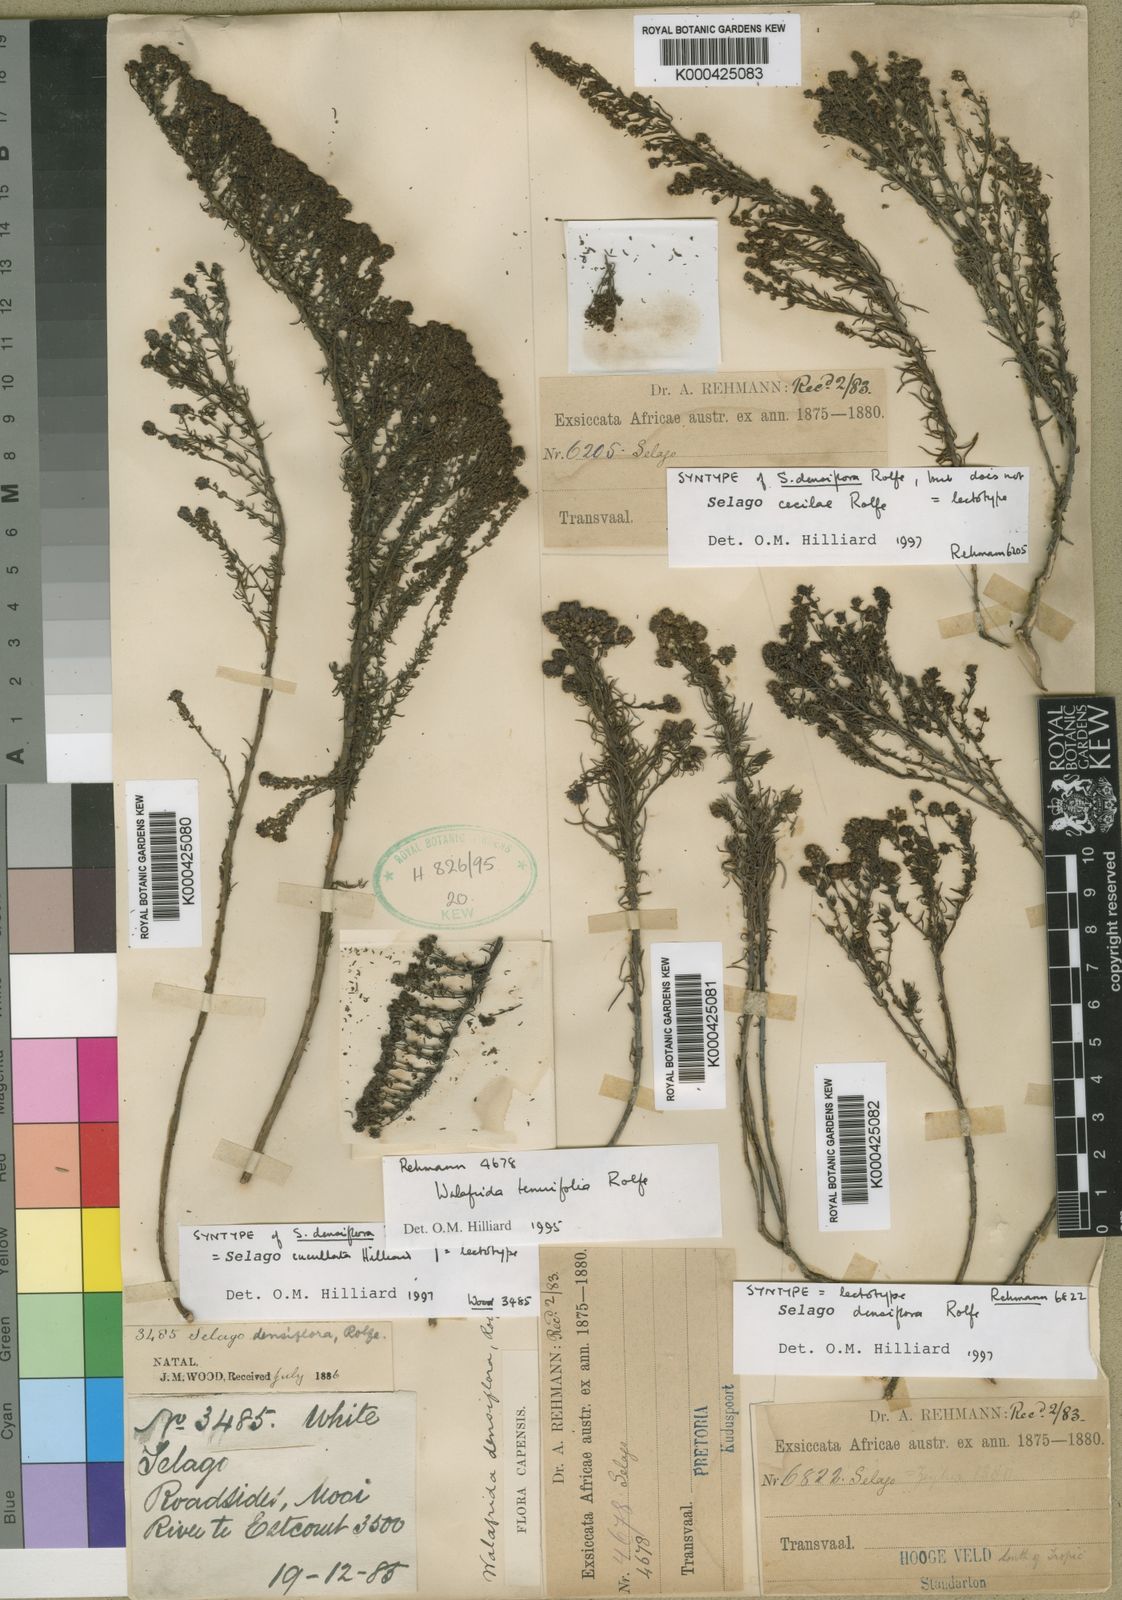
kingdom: Plantae
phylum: Tracheophyta
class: Magnoliopsida
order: Lamiales
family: Scrophulariaceae
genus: Selago
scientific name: Selago
